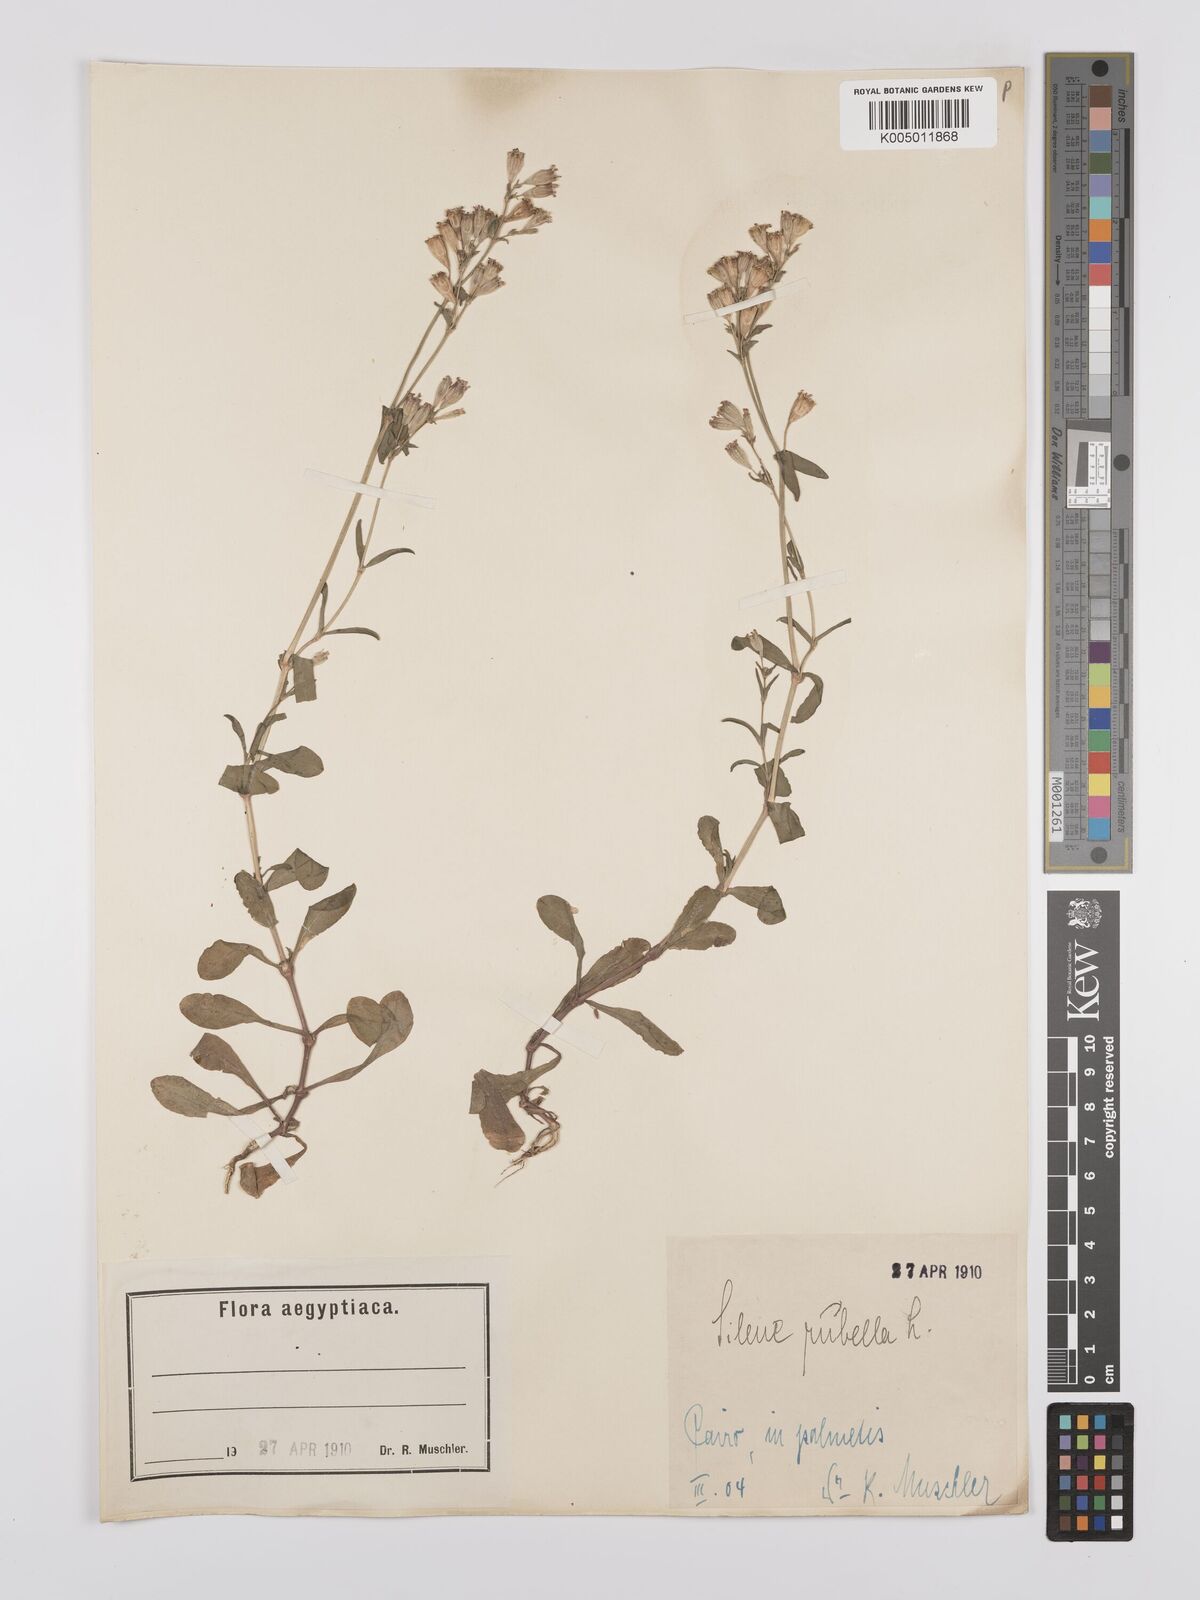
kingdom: Plantae
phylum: Tracheophyta
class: Magnoliopsida
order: Caryophyllales
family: Caryophyllaceae
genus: Silene
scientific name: Silene rubella
